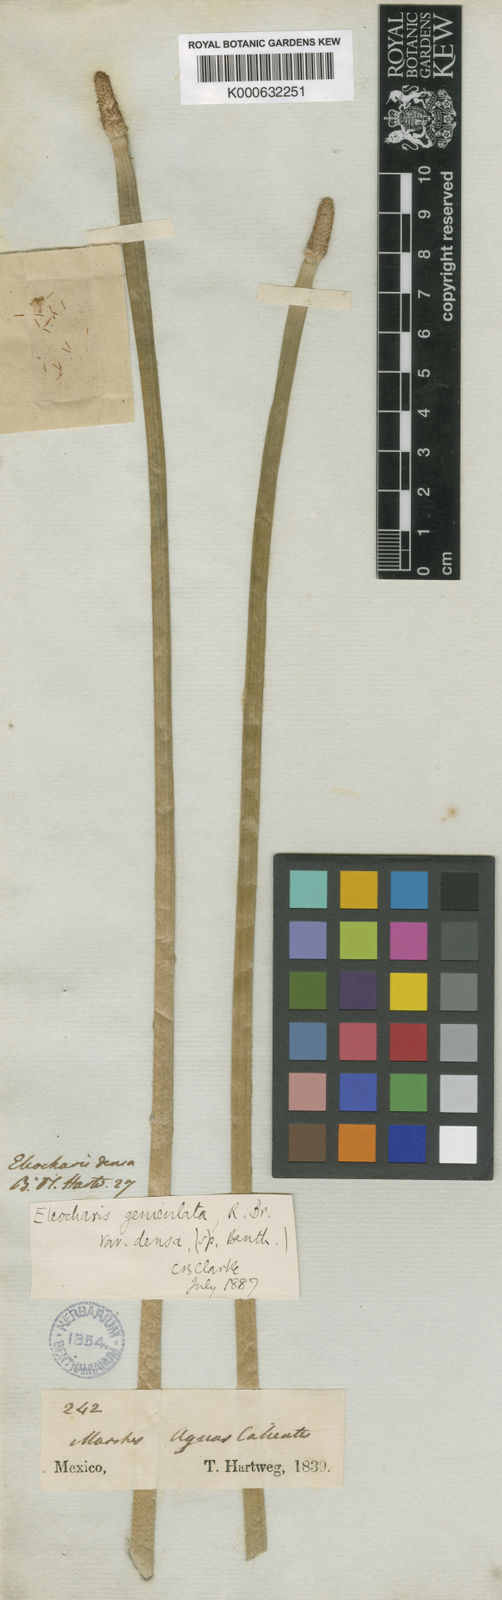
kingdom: Plantae
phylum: Tracheophyta
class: Liliopsida
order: Poales
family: Cyperaceae
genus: Eleocharis
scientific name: Eleocharis densa
